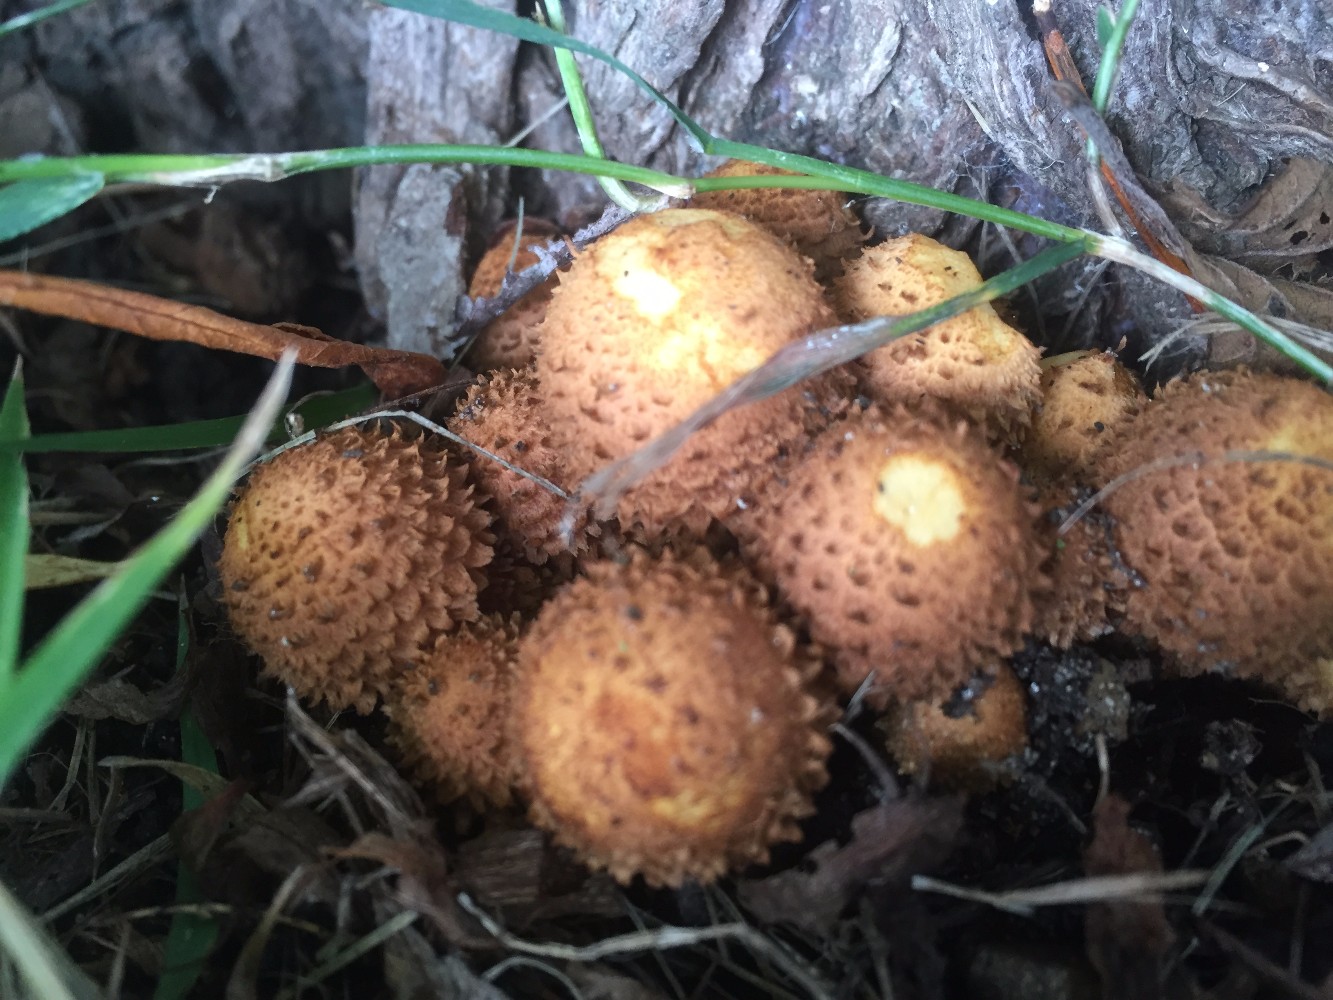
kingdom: Fungi
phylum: Basidiomycota
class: Agaricomycetes
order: Agaricales
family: Strophariaceae
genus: Pholiota
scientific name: Pholiota squarrosa
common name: krumskællet skælhat
